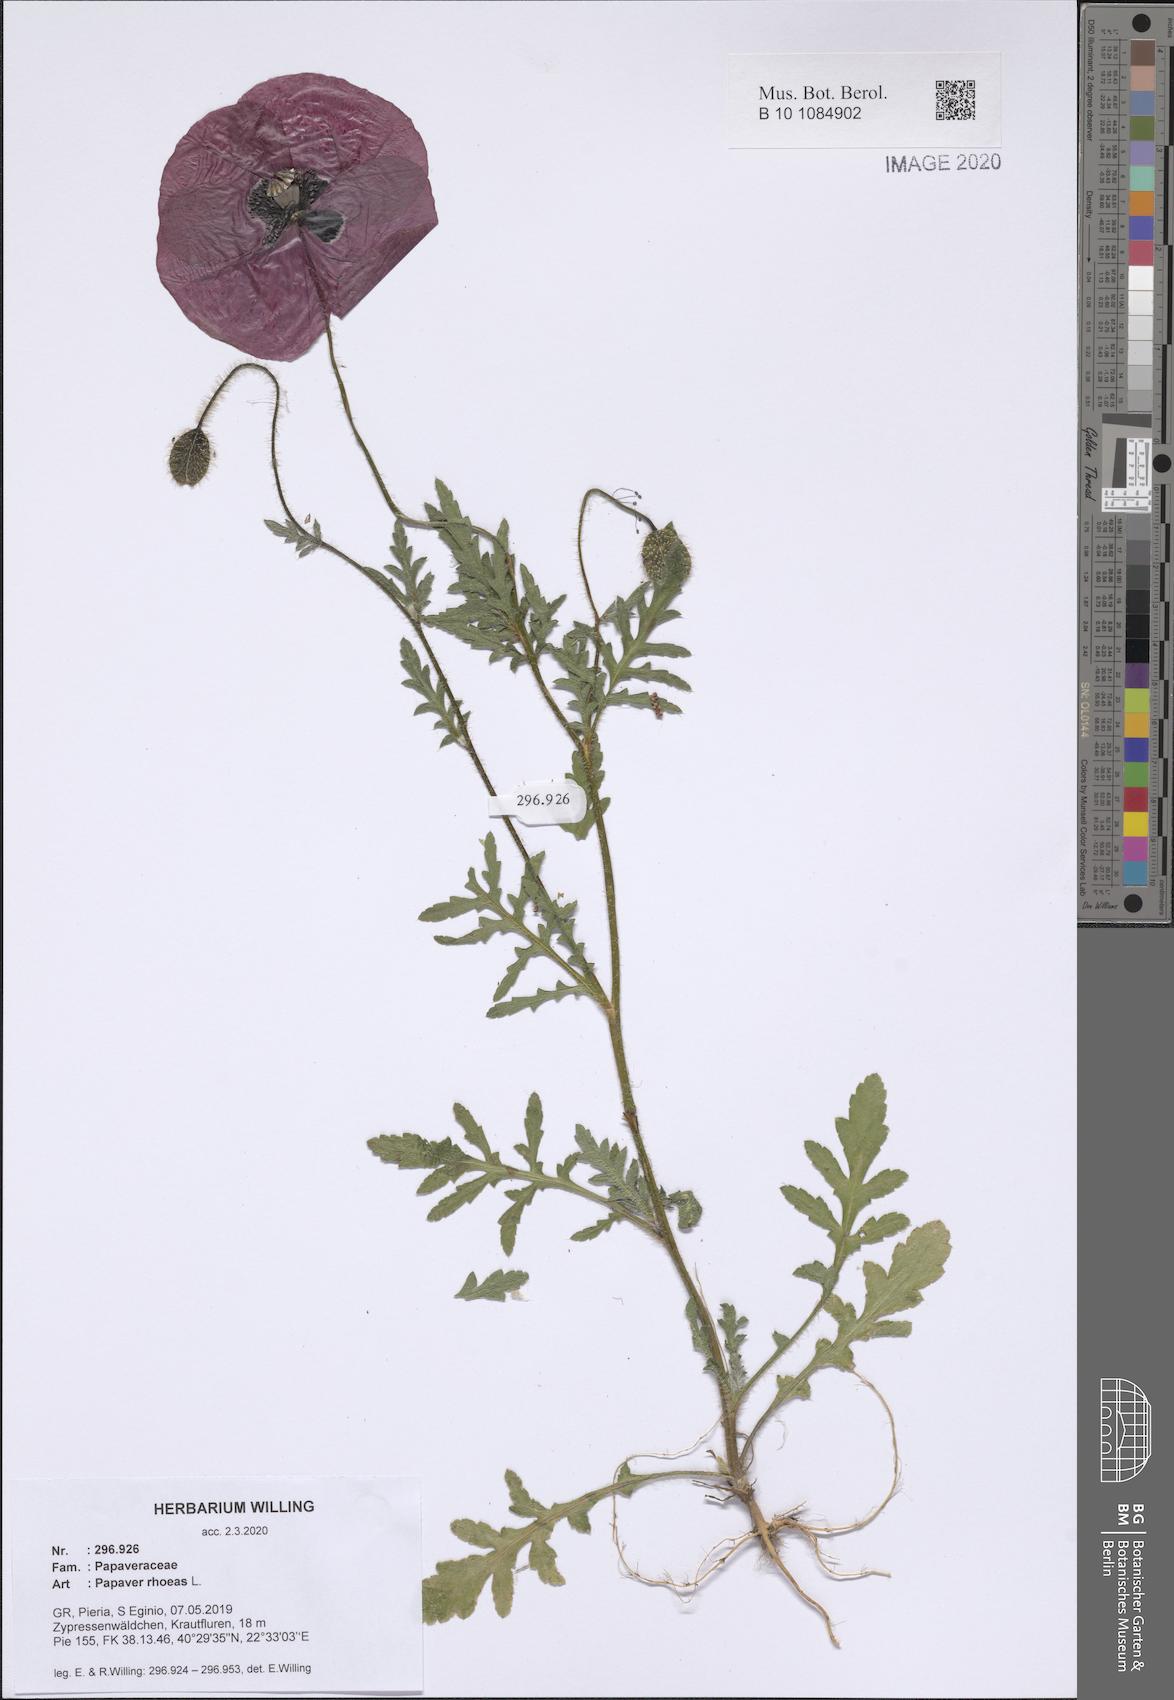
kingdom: Plantae
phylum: Tracheophyta
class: Magnoliopsida
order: Ranunculales
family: Papaveraceae
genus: Papaver
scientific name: Papaver rhoeas
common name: Corn poppy
